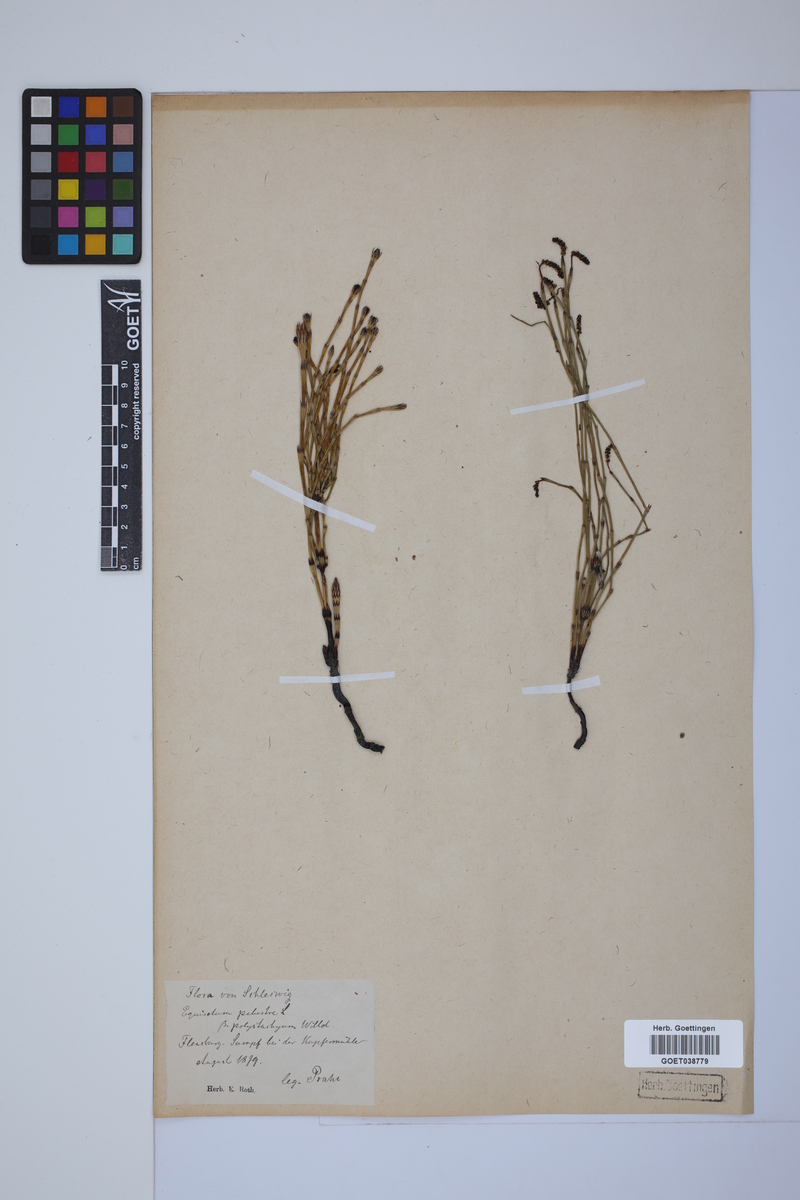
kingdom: Plantae
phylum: Tracheophyta
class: Polypodiopsida
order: Equisetales
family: Equisetaceae
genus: Equisetum
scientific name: Equisetum palustre
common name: Marsh horsetail
